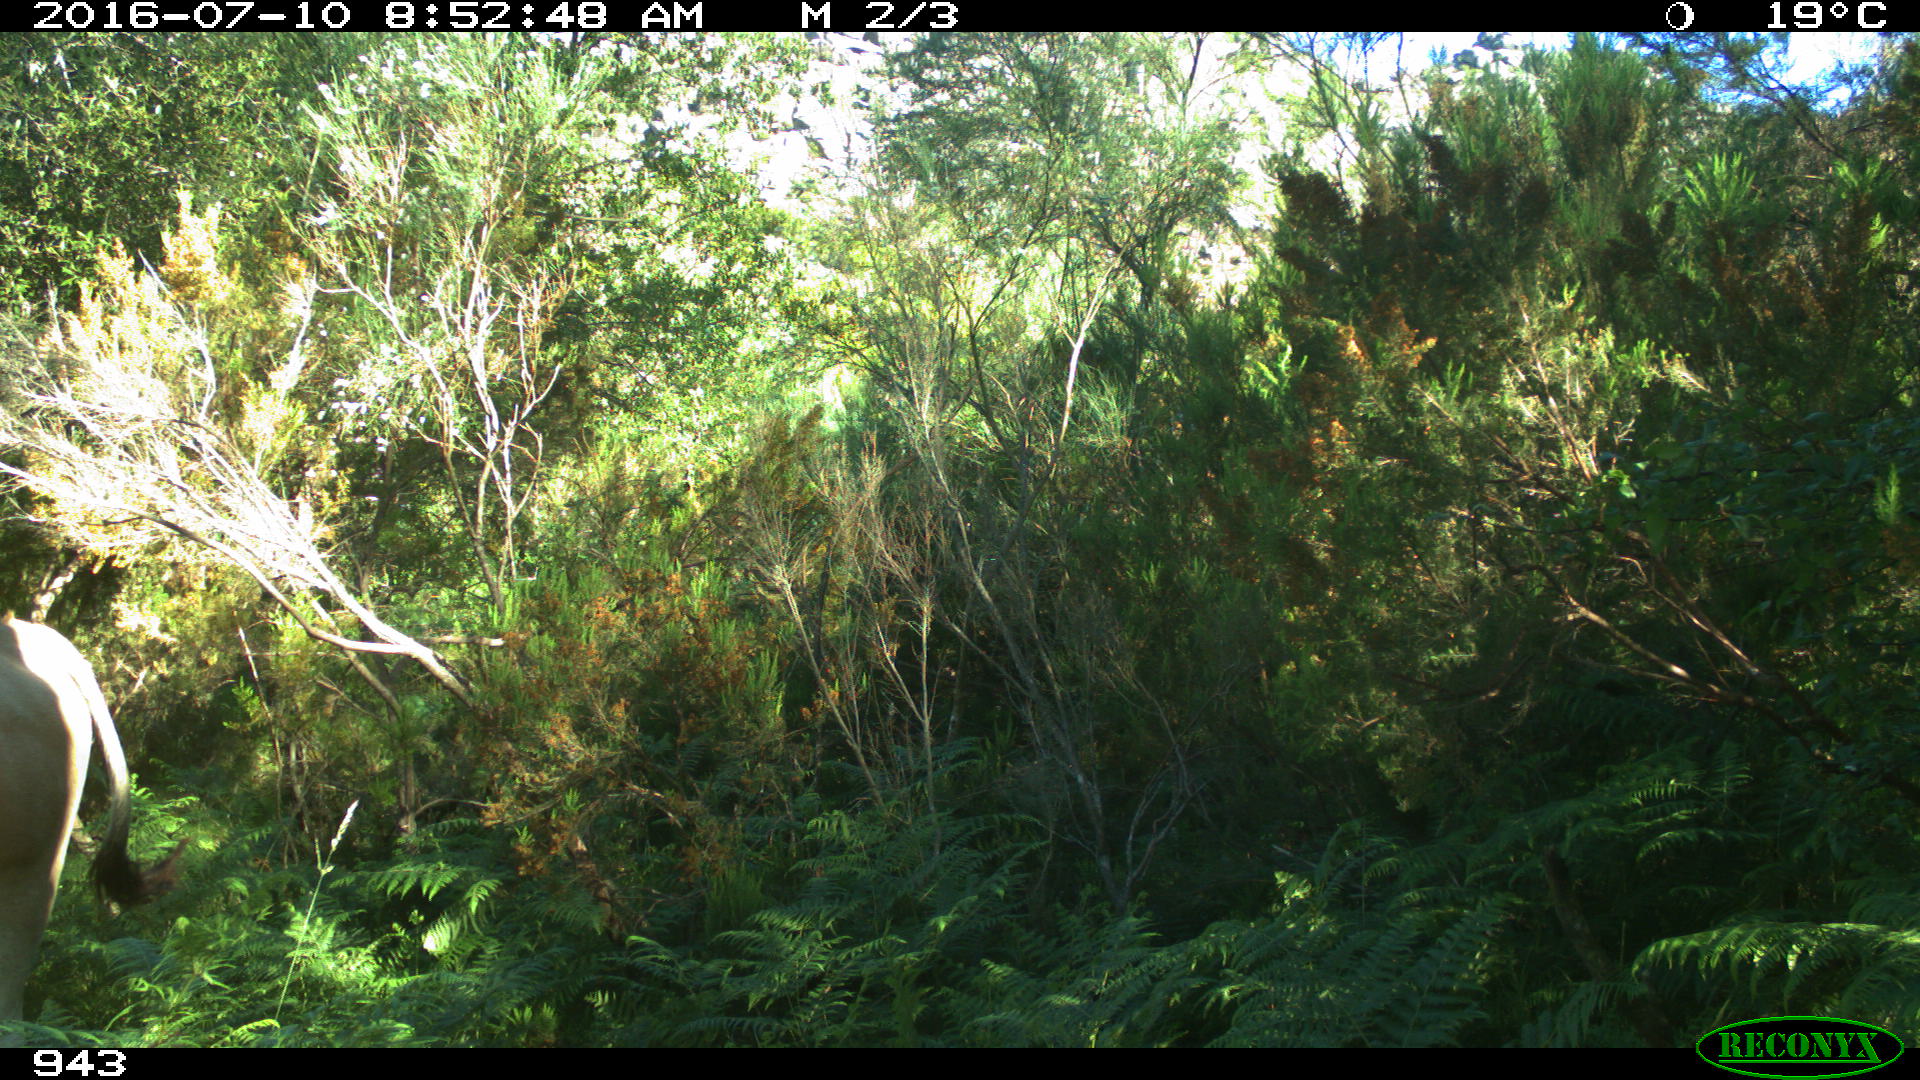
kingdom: Animalia
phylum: Chordata
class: Mammalia
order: Artiodactyla
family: Bovidae
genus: Bos
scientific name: Bos taurus
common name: Domesticated cattle
